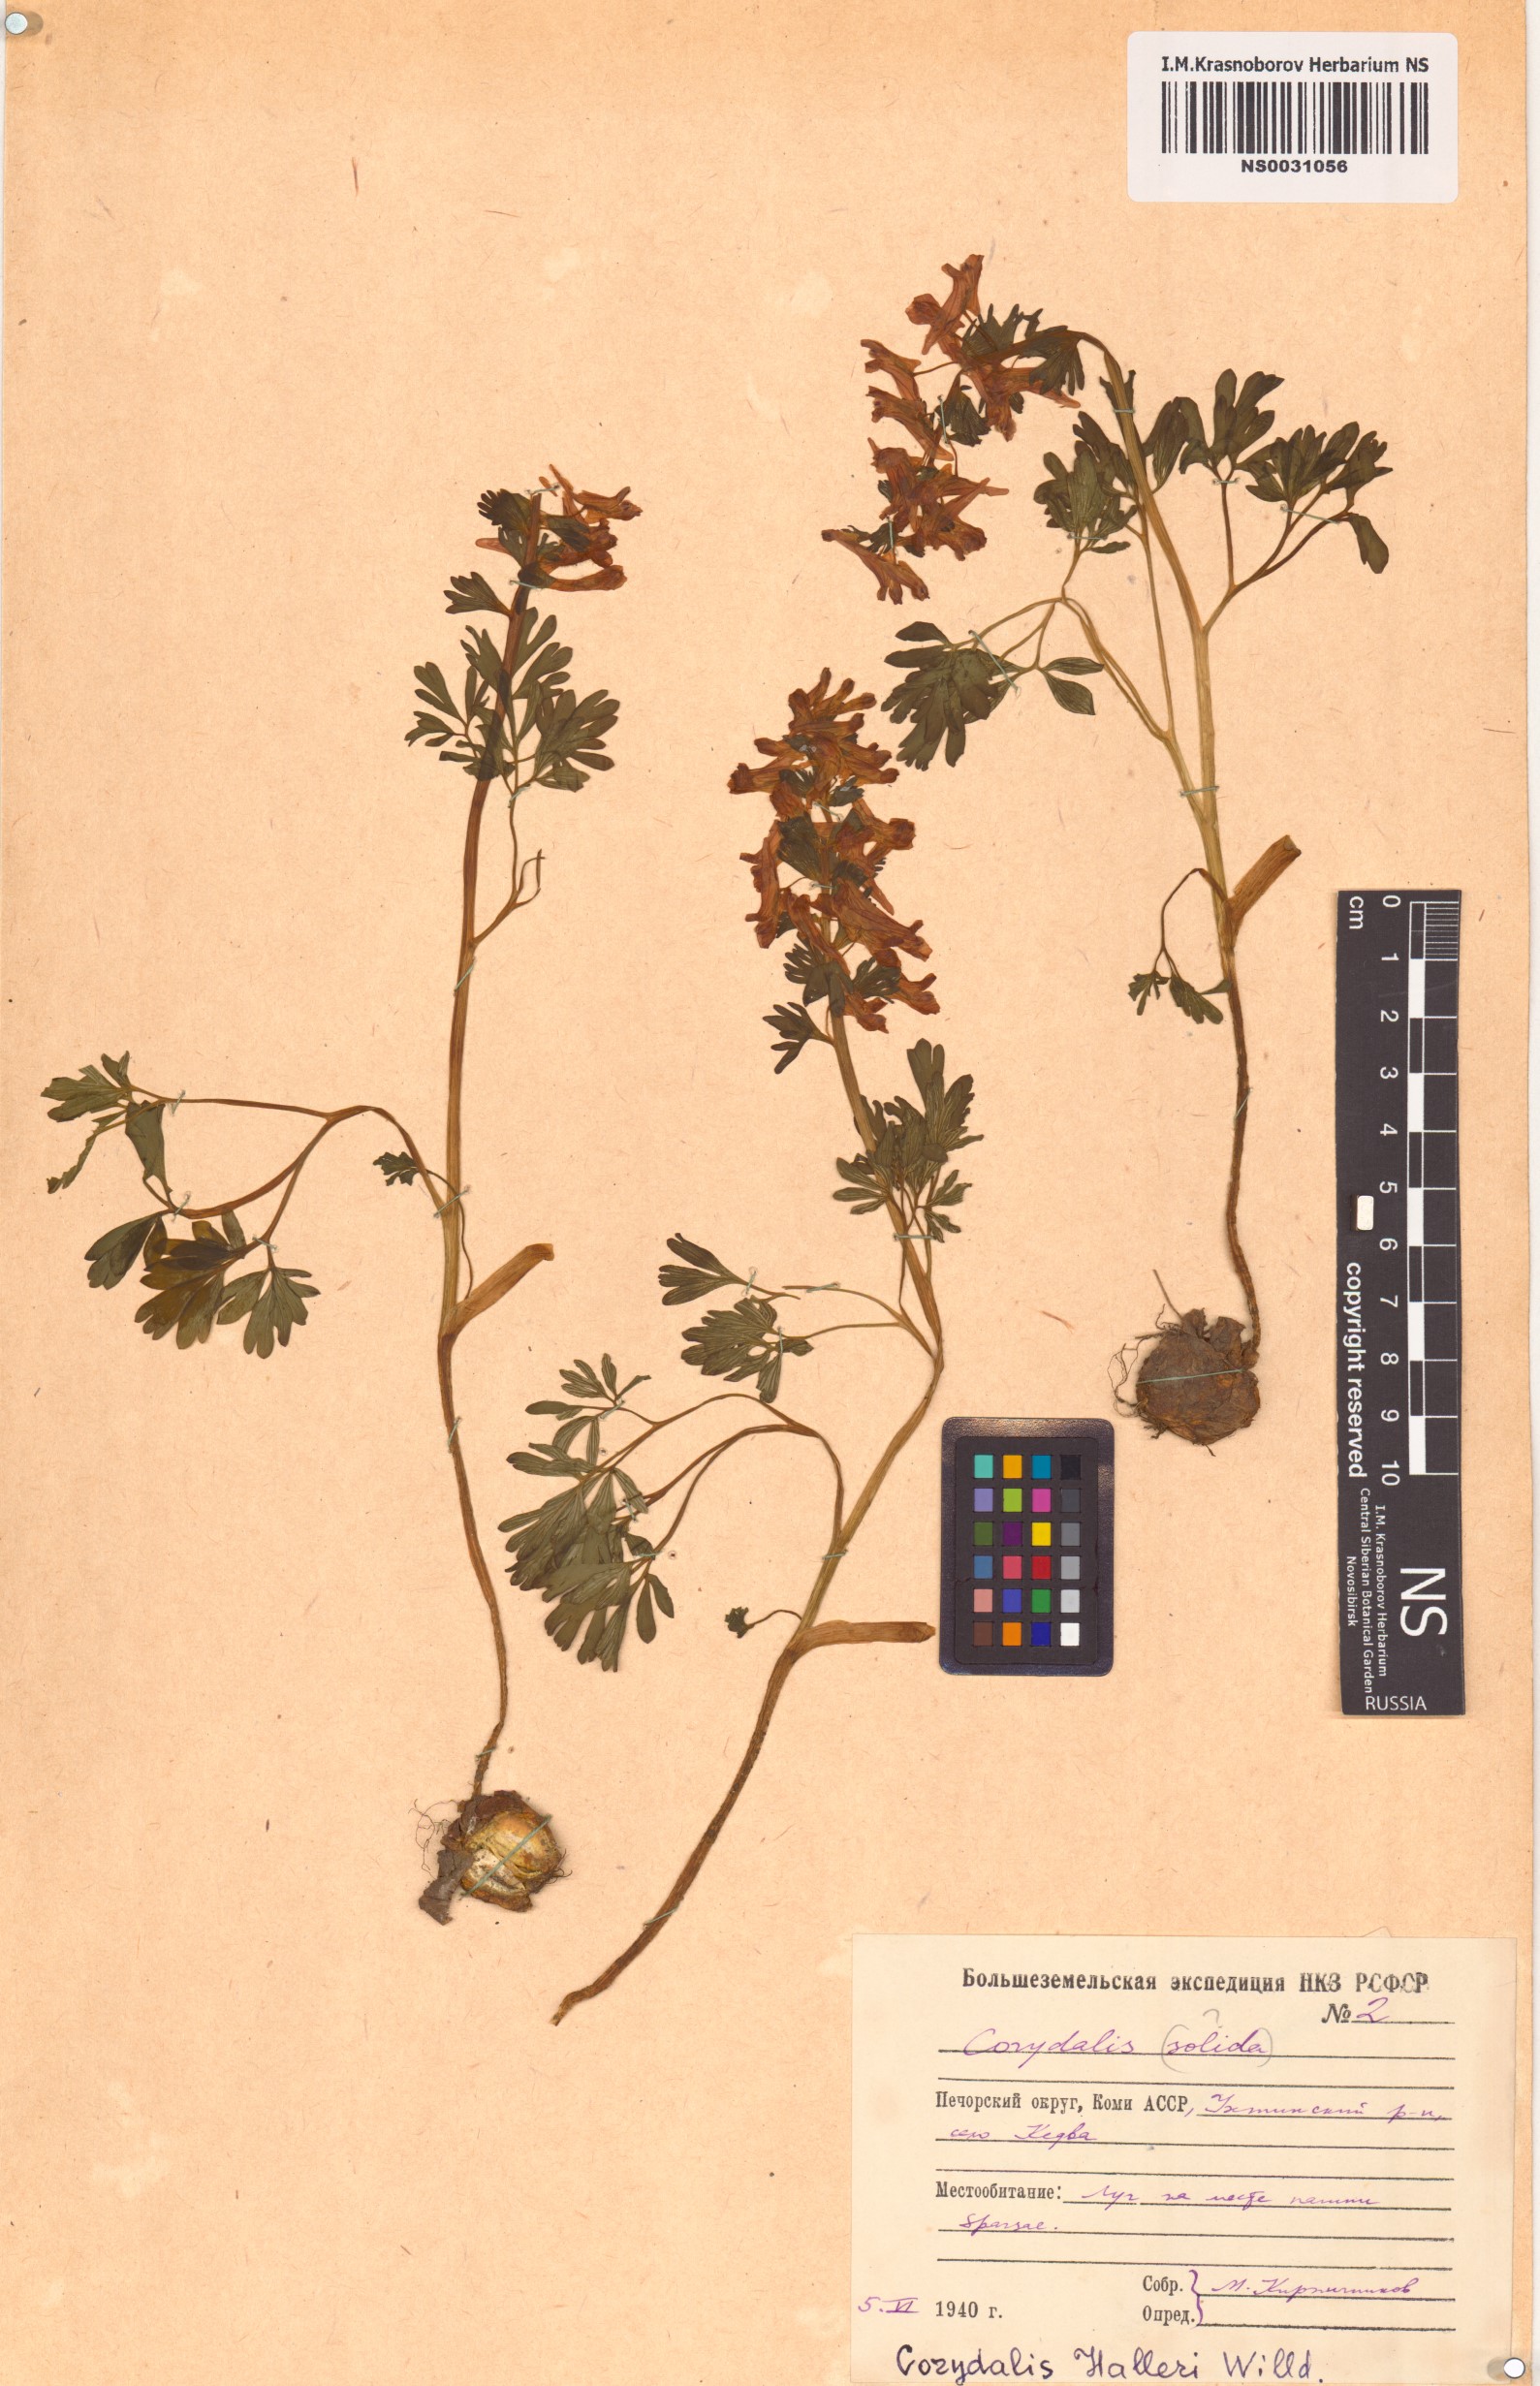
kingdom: Plantae
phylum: Tracheophyta
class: Magnoliopsida
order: Ranunculales
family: Papaveraceae
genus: Corydalis
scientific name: Corydalis solida
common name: Bird-in-a-bush
